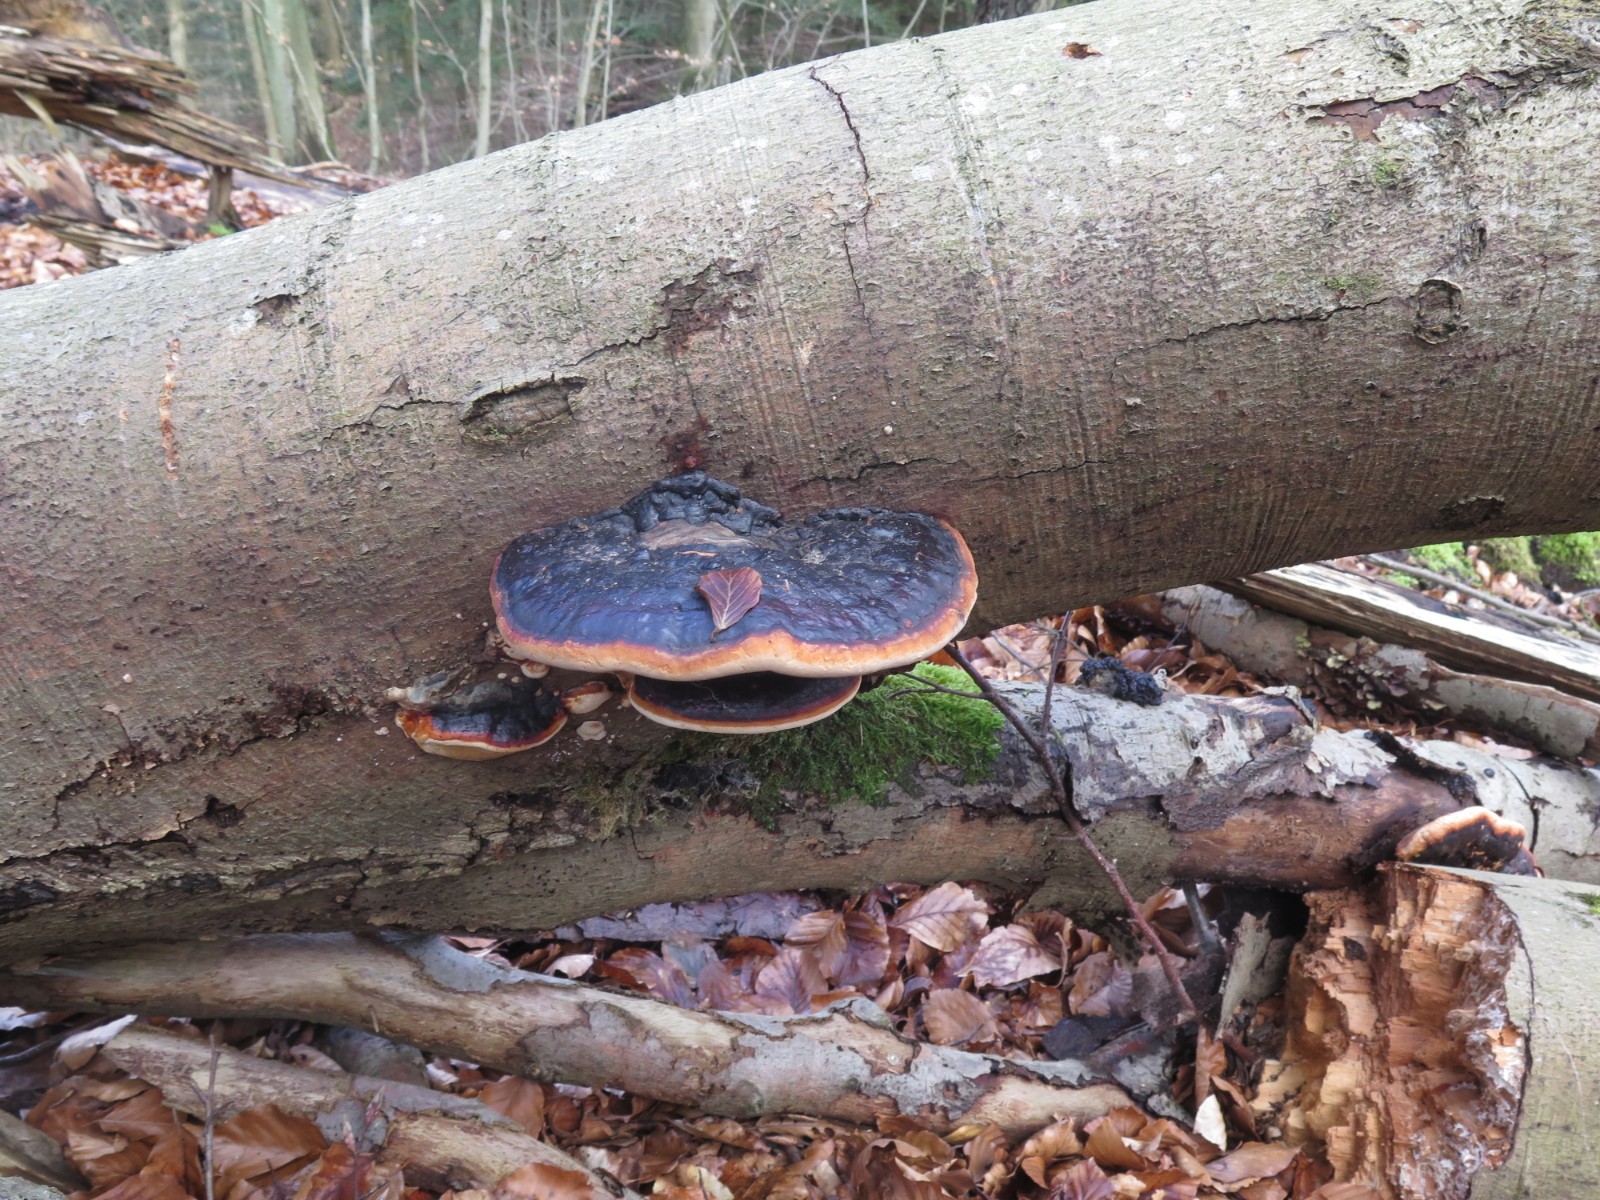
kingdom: Fungi
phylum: Basidiomycota
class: Agaricomycetes
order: Polyporales
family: Fomitopsidaceae
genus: Fomitopsis
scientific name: Fomitopsis pinicola
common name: randbæltet hovporesvamp
